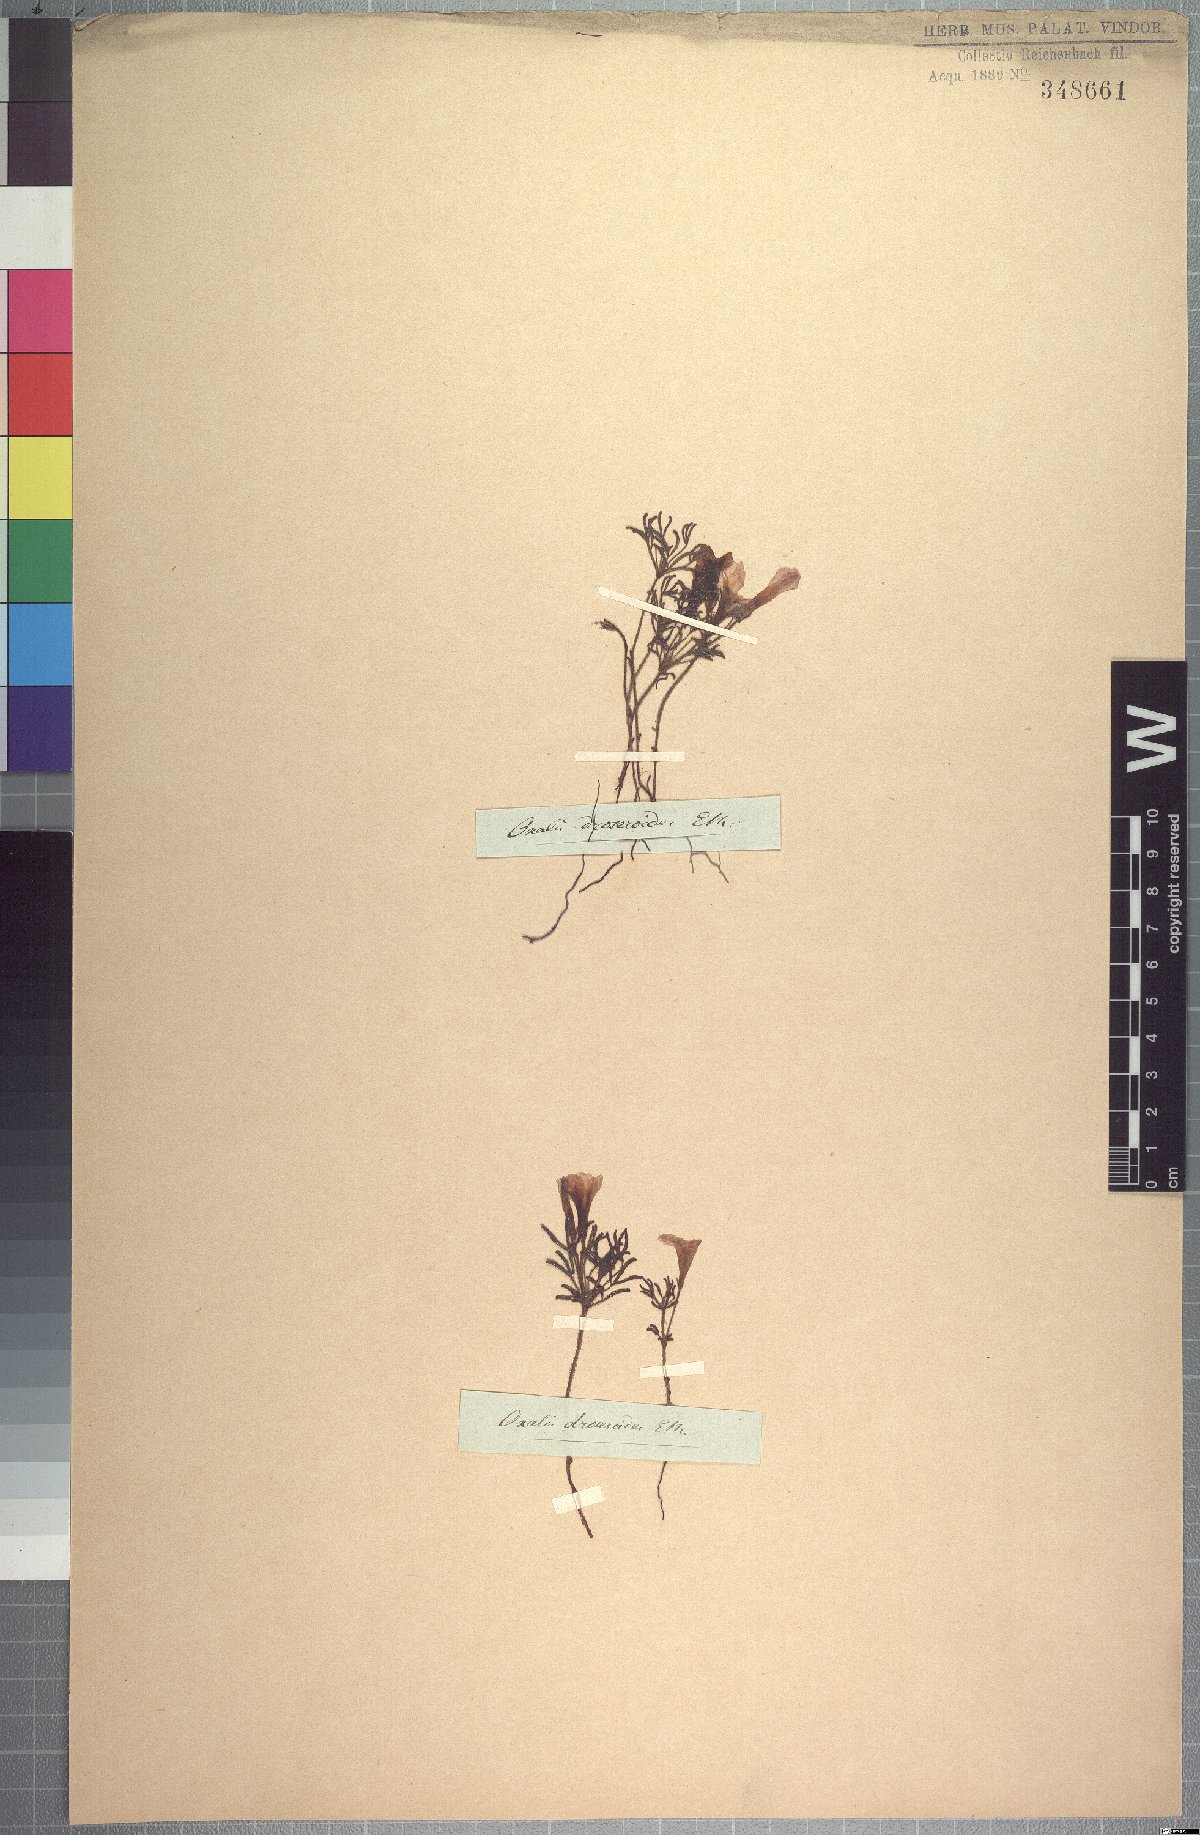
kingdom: Plantae
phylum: Tracheophyta
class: Magnoliopsida
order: Oxalidales
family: Oxalidaceae
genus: Oxalis
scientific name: Oxalis droseroides
